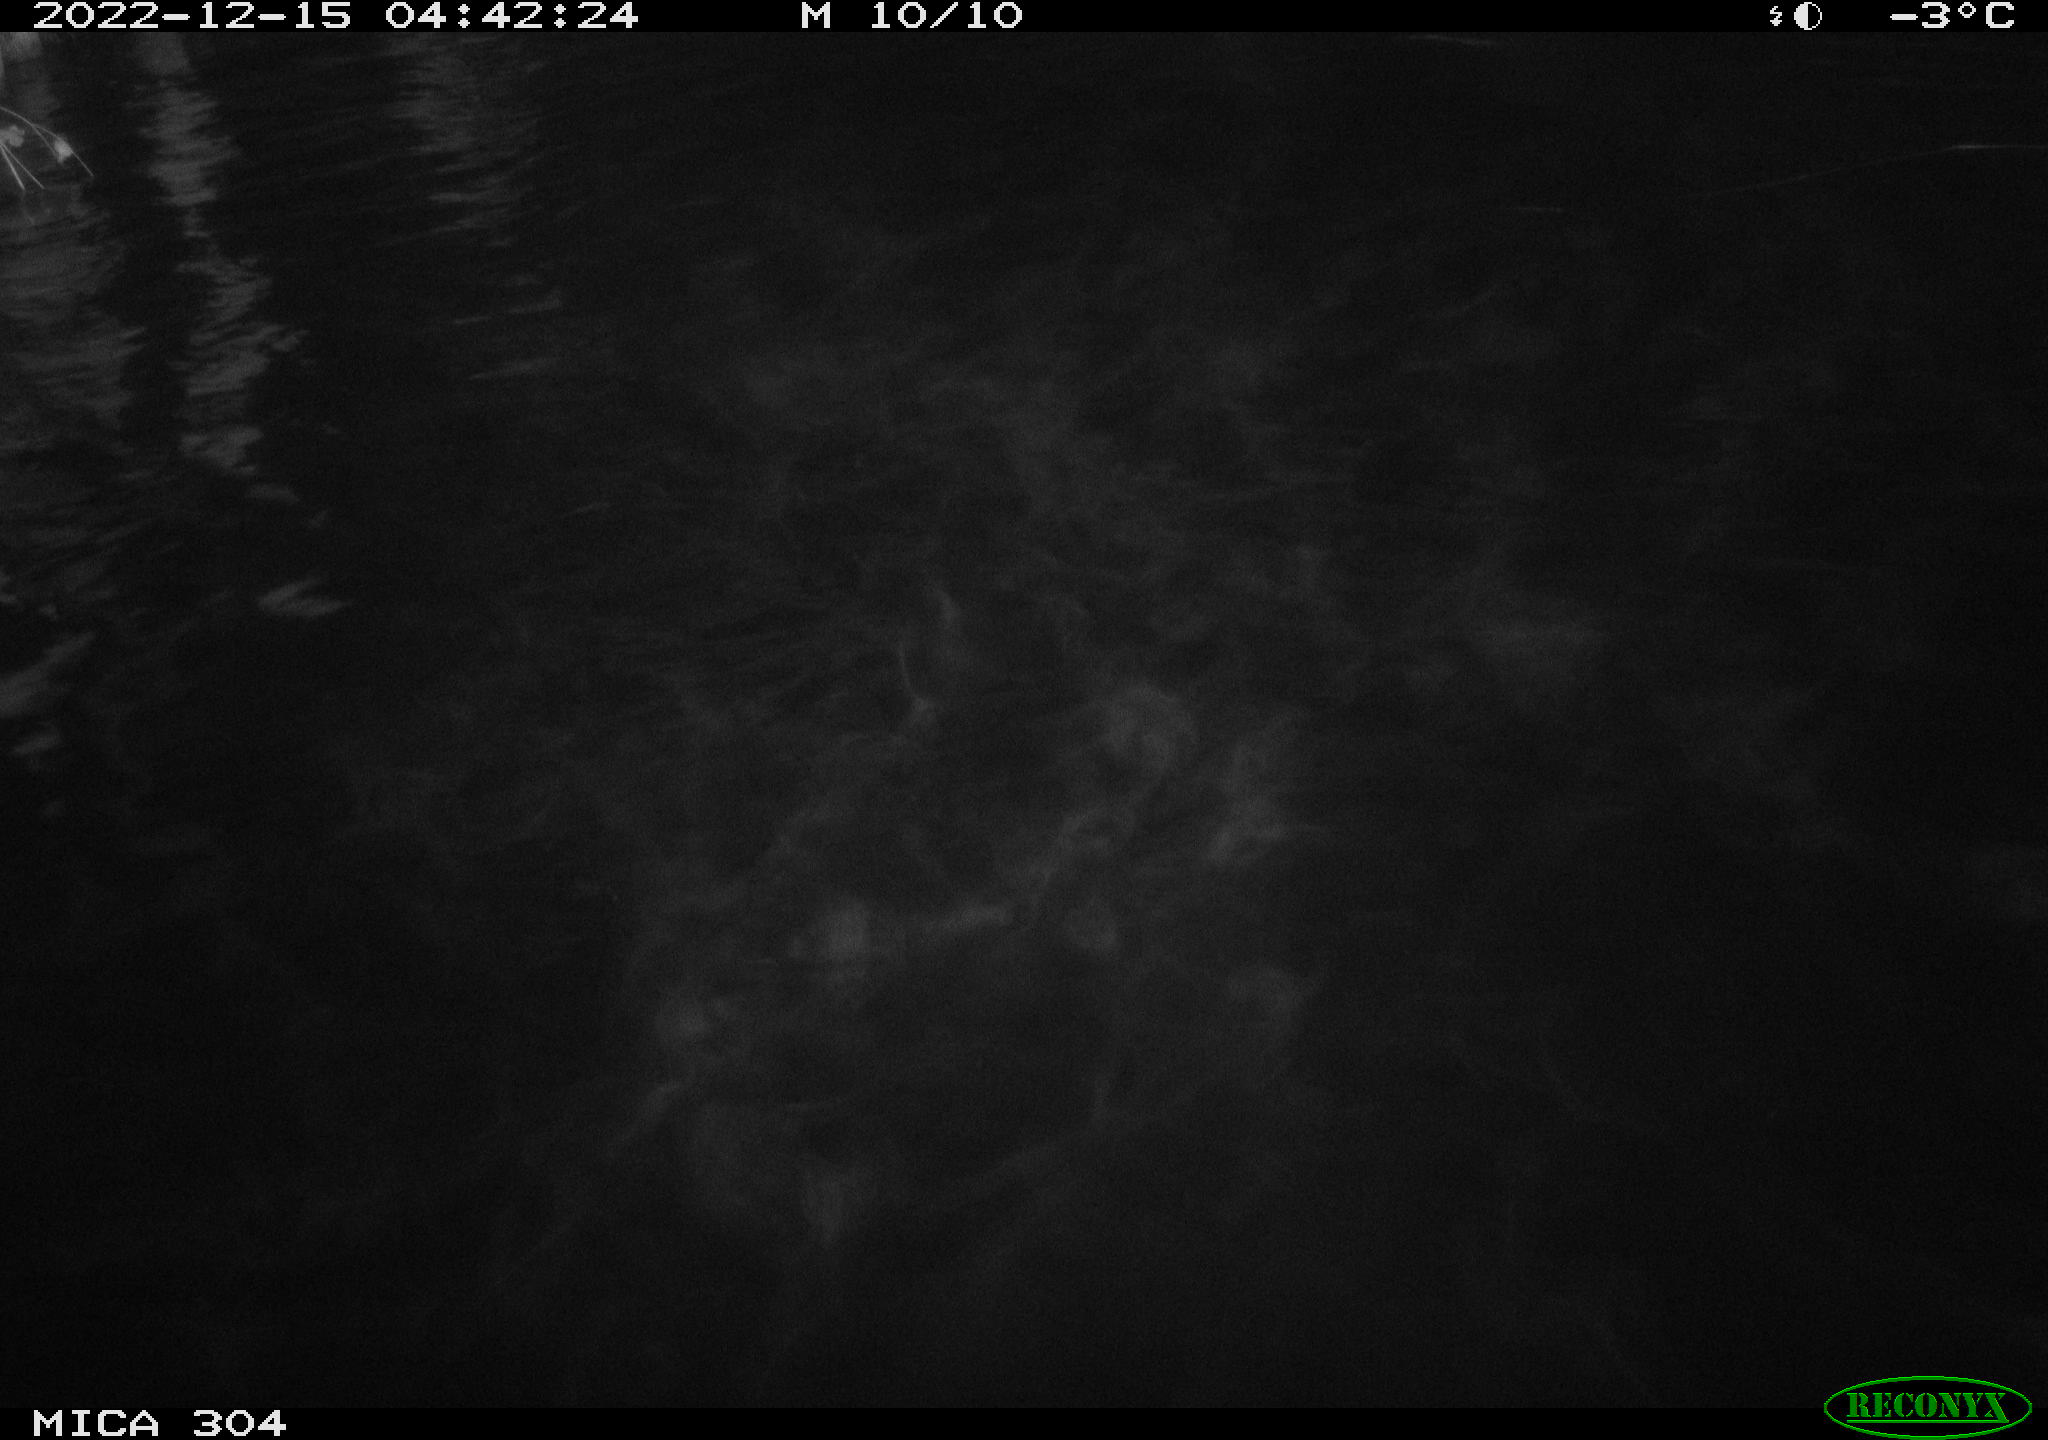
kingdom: Animalia
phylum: Chordata
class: Aves
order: Anseriformes
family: Anatidae
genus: Anas
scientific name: Anas
